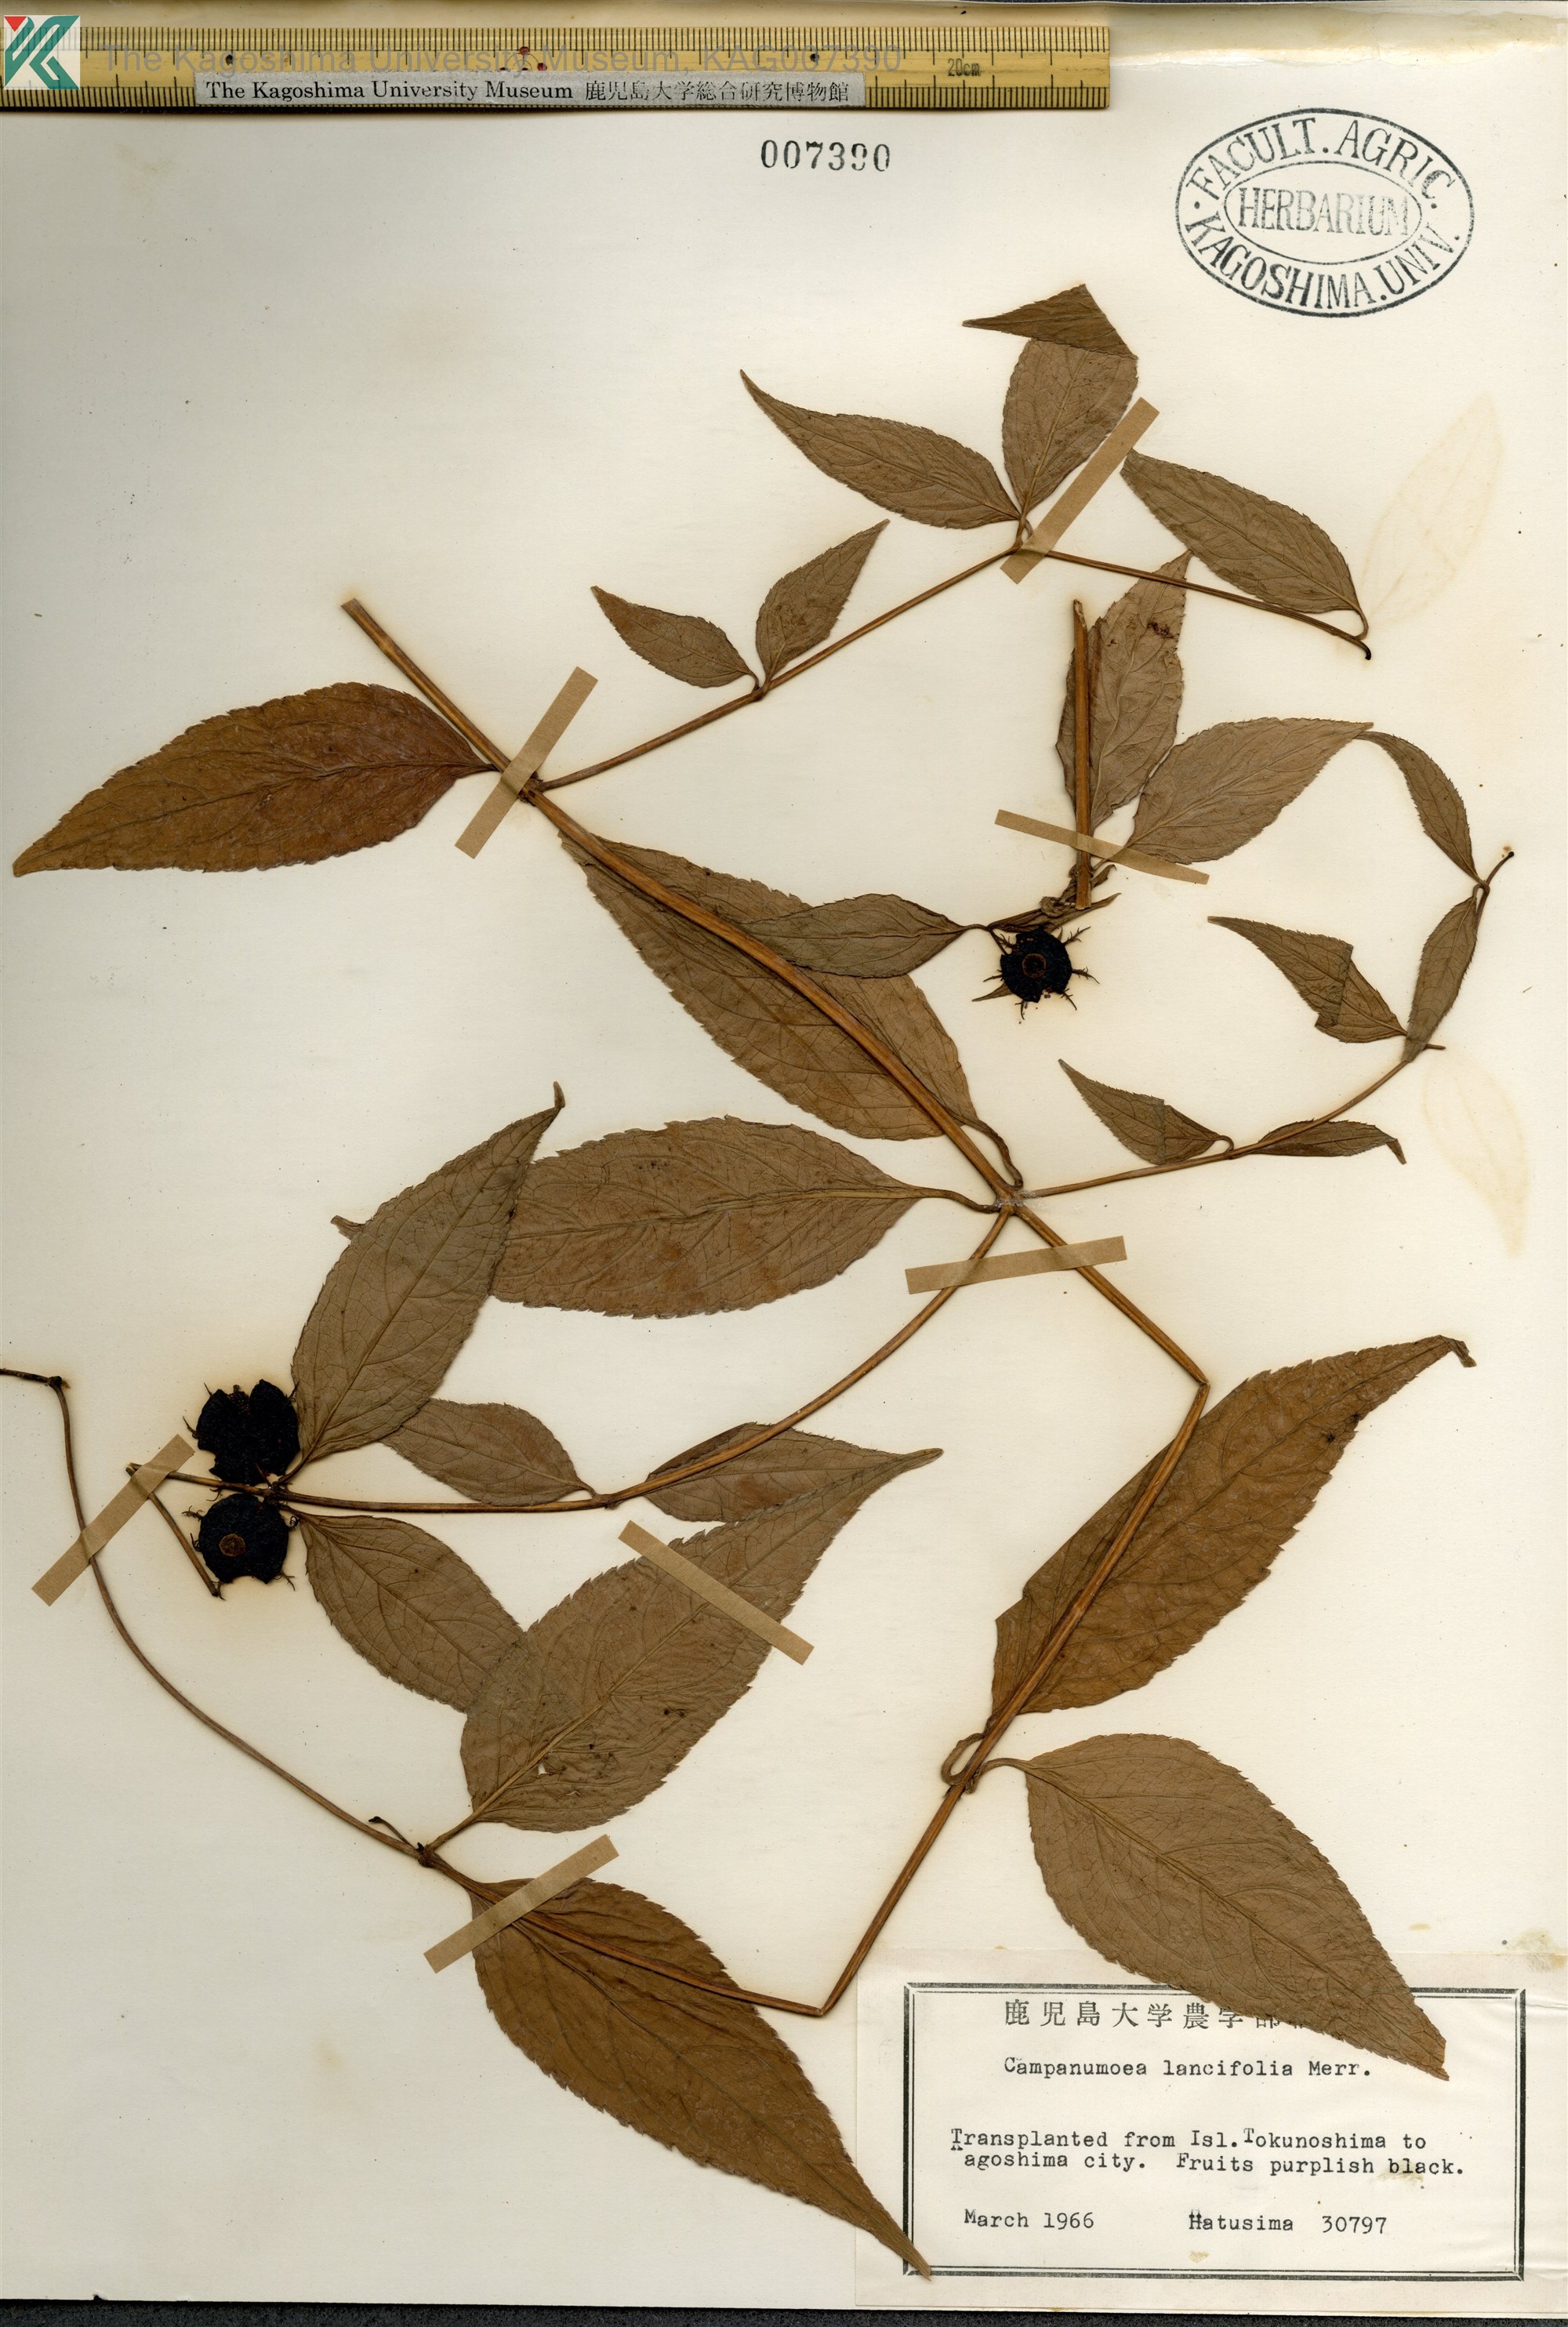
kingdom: Plantae
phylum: Tracheophyta
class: Magnoliopsida
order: Asterales
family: Campanulaceae
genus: Cyclocodon
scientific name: Cyclocodon lancifolius
